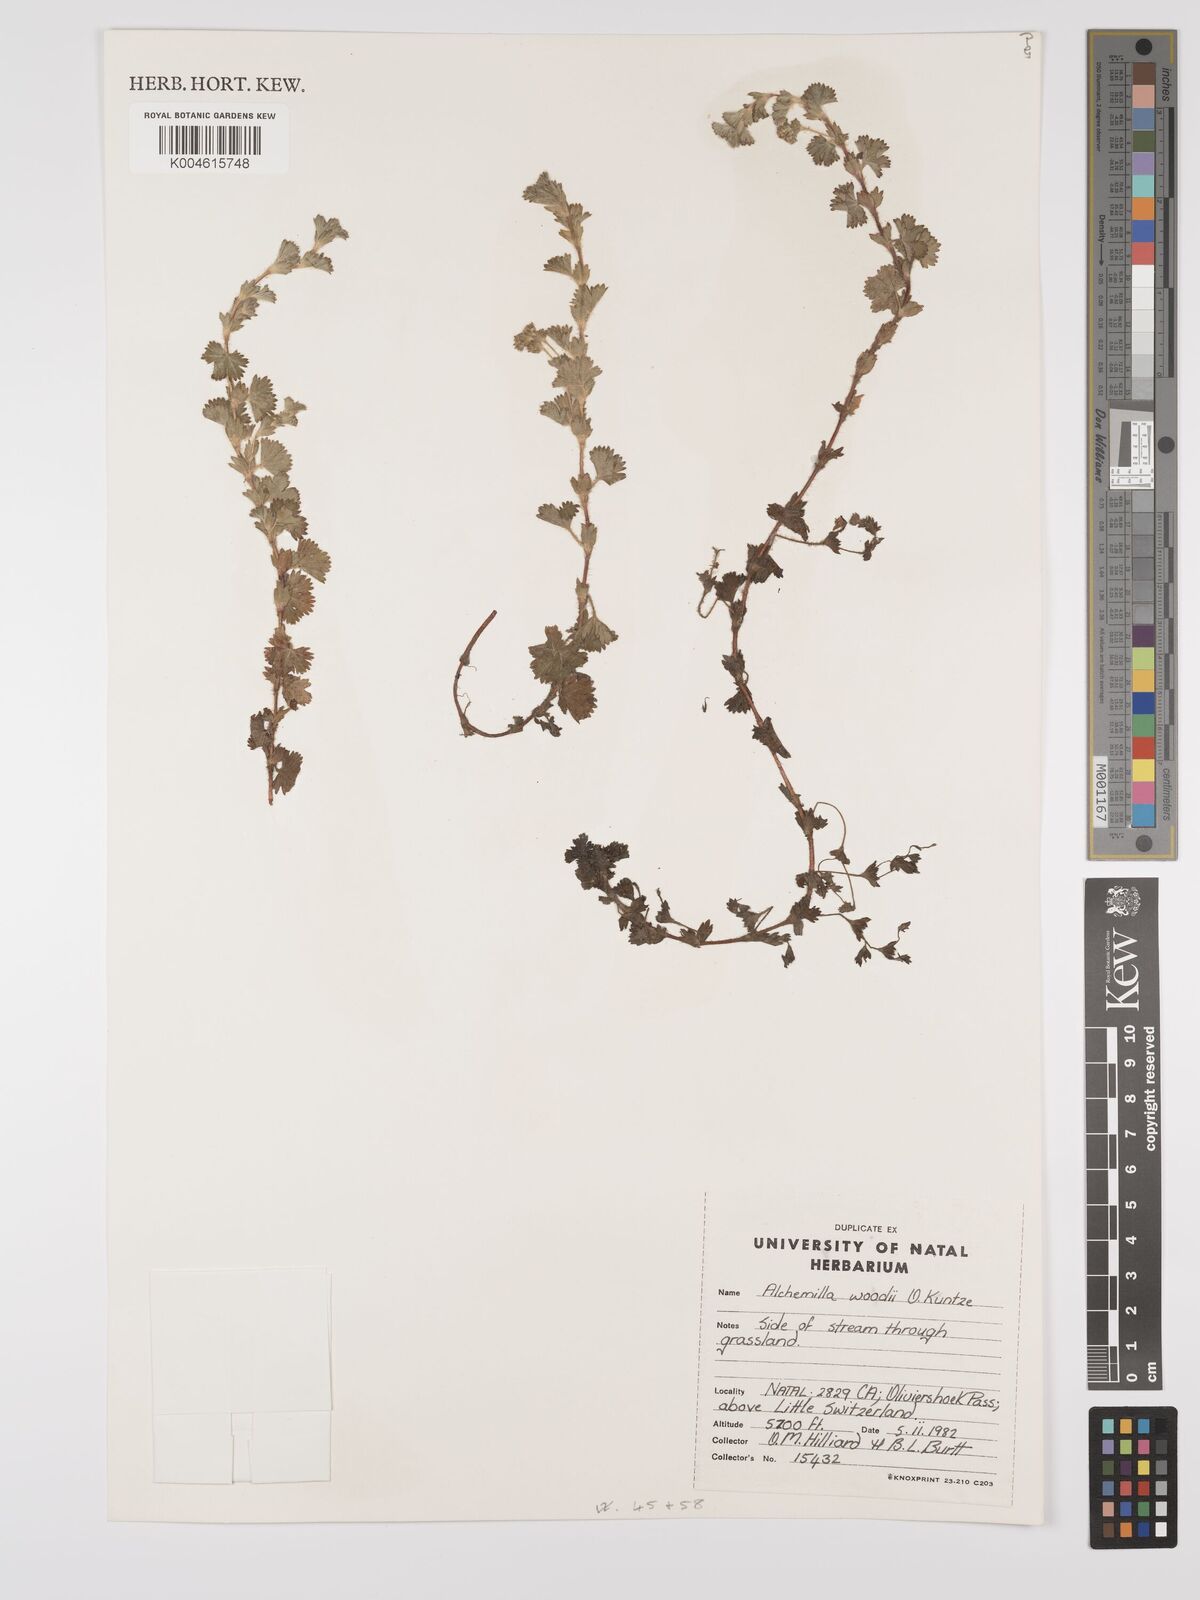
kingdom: Plantae
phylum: Tracheophyta
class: Magnoliopsida
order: Rosales
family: Rosaceae
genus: Alchemilla
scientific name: Alchemilla woodii
